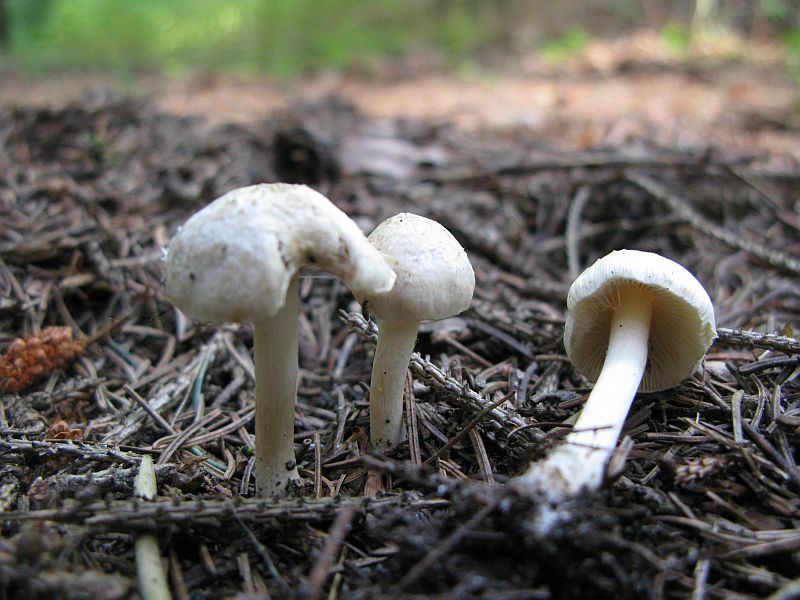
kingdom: Fungi
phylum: Basidiomycota
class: Agaricomycetes
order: Agaricales
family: Inocybaceae
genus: Inocybe
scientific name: Inocybe
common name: trævlhat
